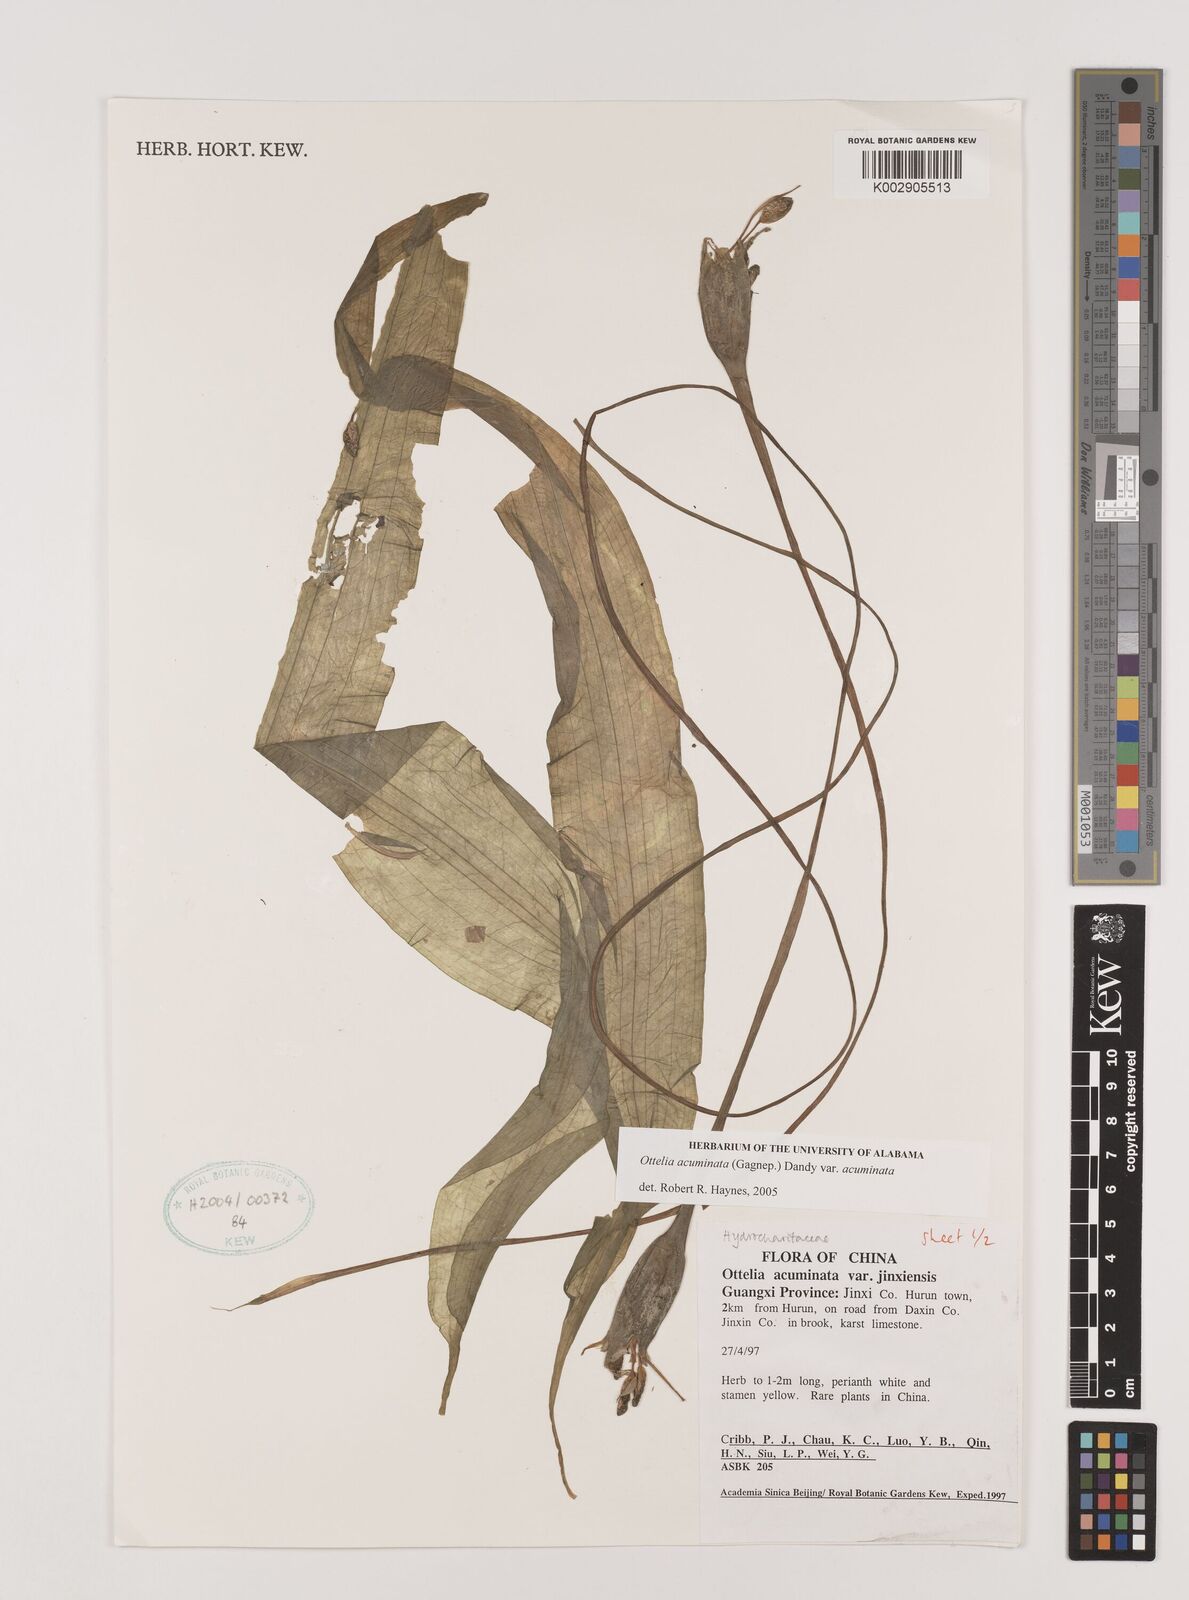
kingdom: Plantae
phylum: Tracheophyta
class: Liliopsida
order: Alismatales
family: Hydrocharitaceae
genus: Ottelia
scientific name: Ottelia acuminata
